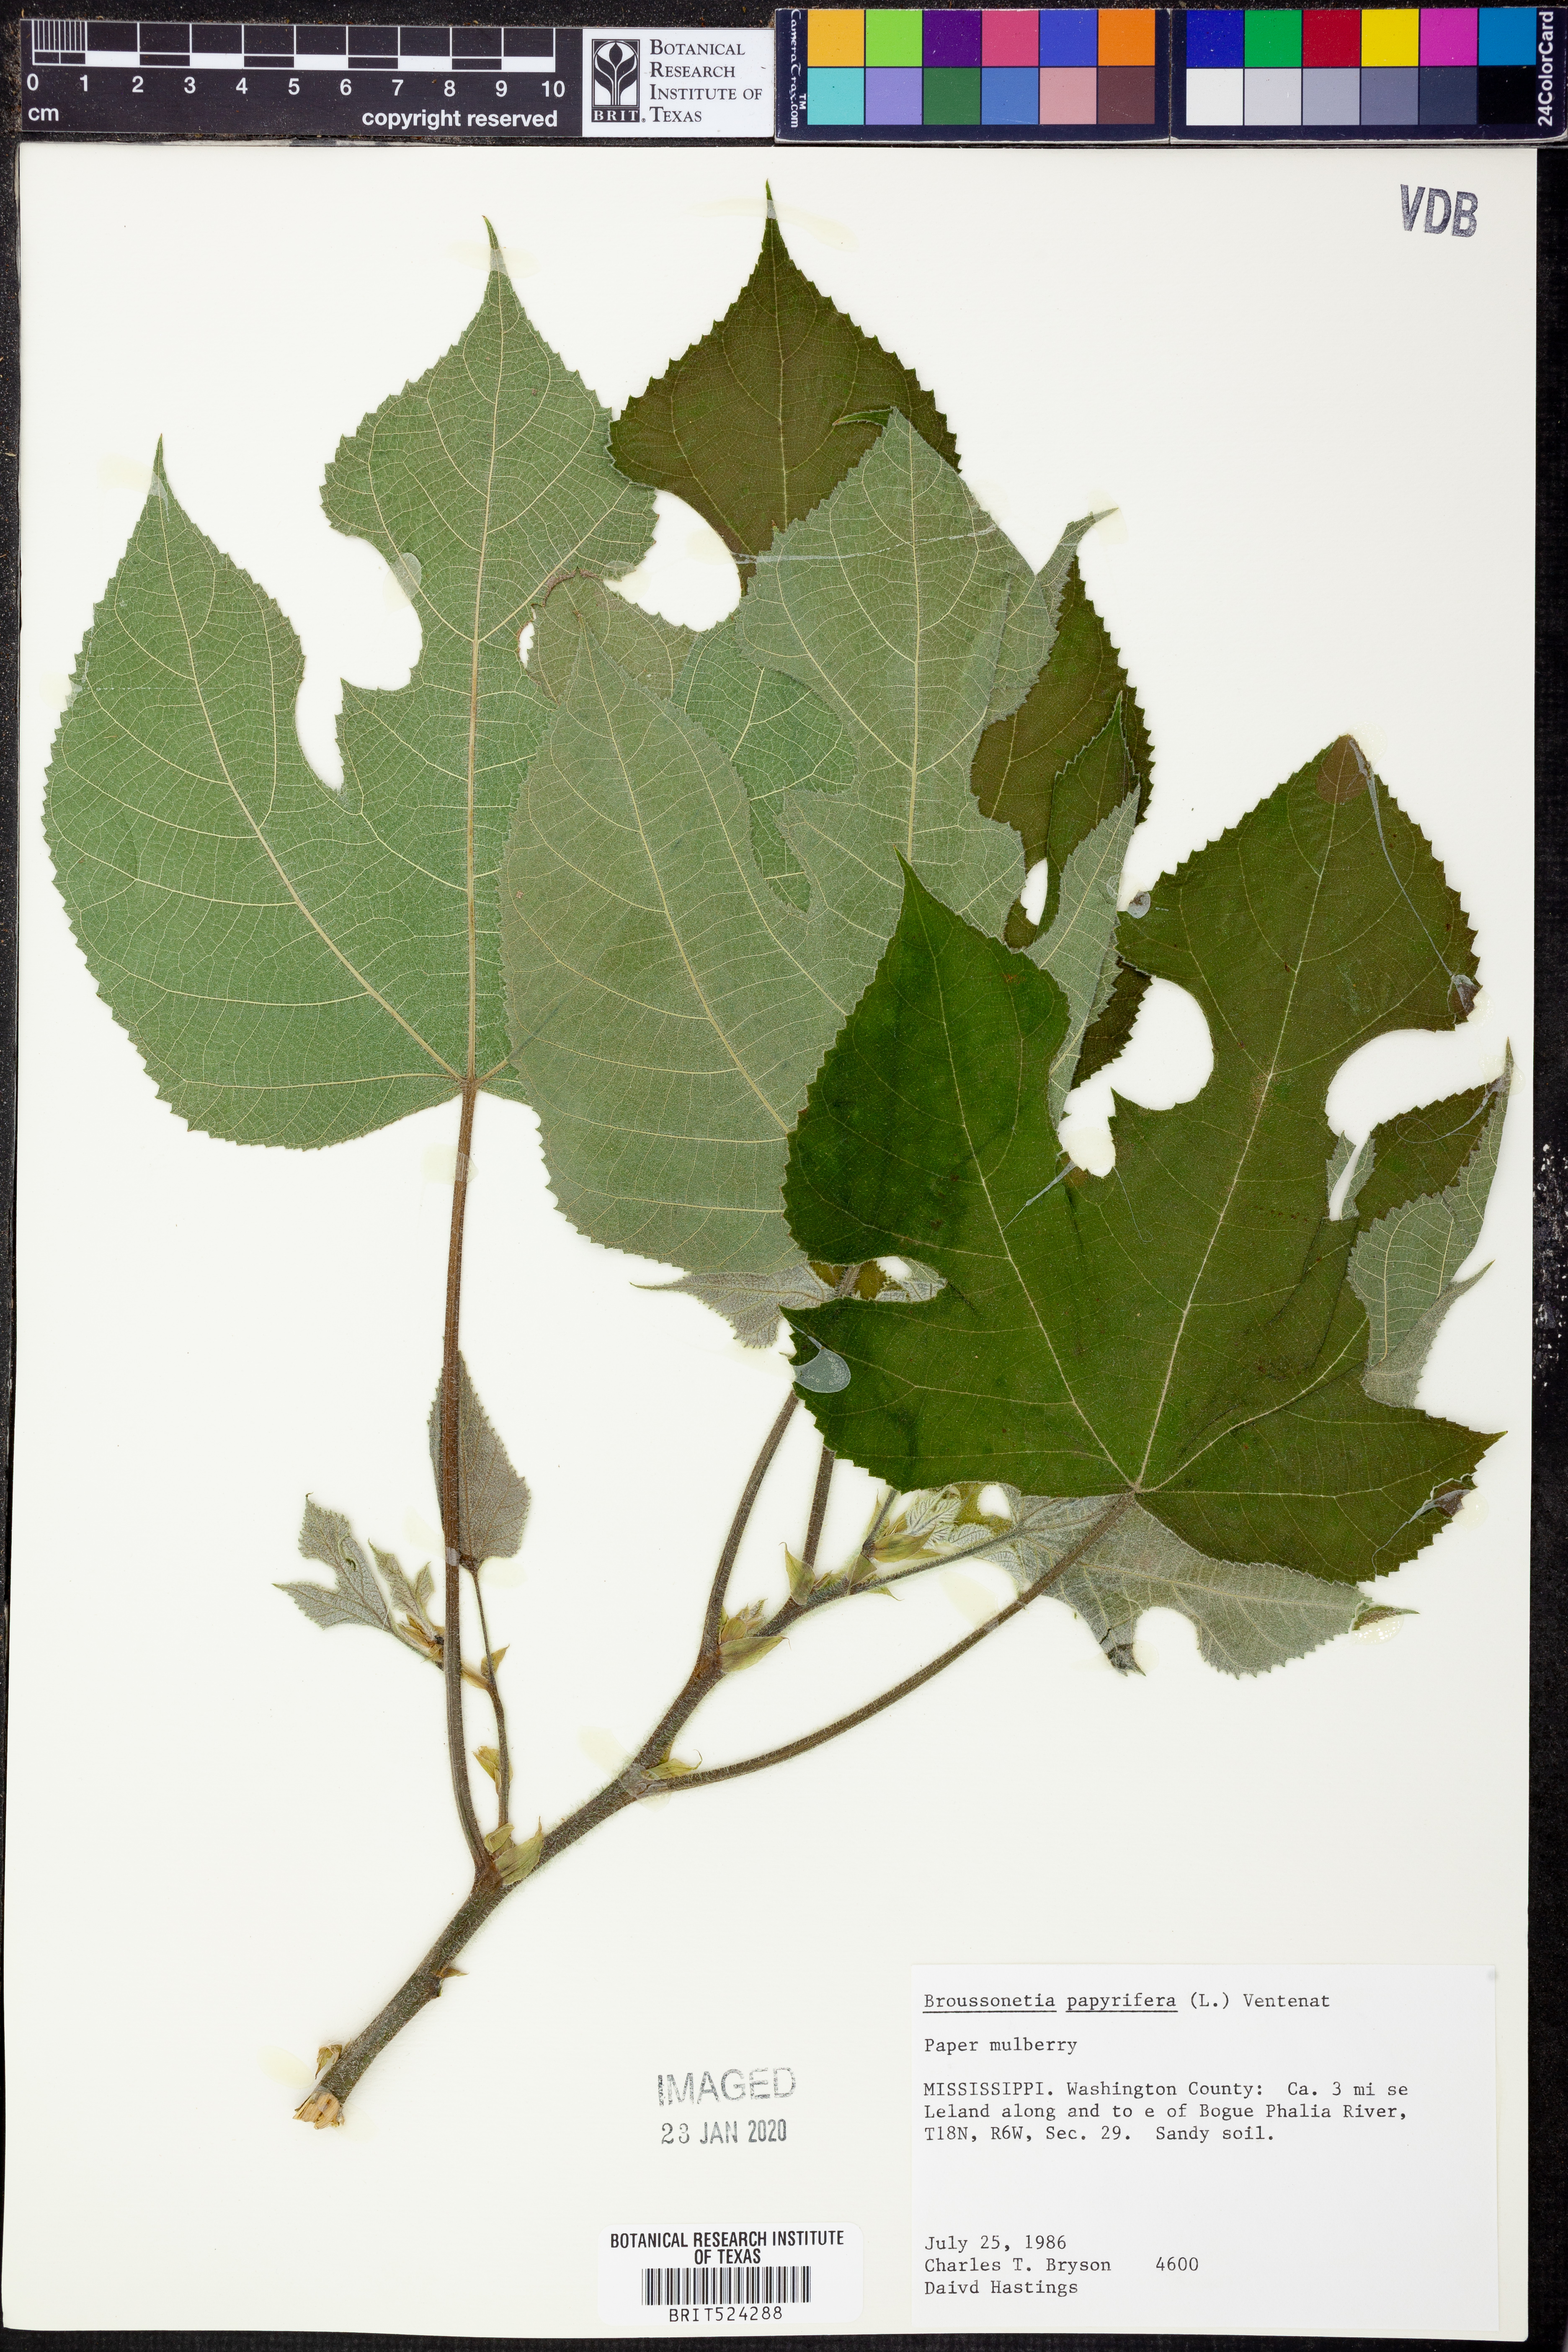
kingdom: Plantae
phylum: Tracheophyta
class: Magnoliopsida
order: Rosales
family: Moraceae
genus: Broussonetia
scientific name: Broussonetia papyrifera
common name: Paper mulberry
